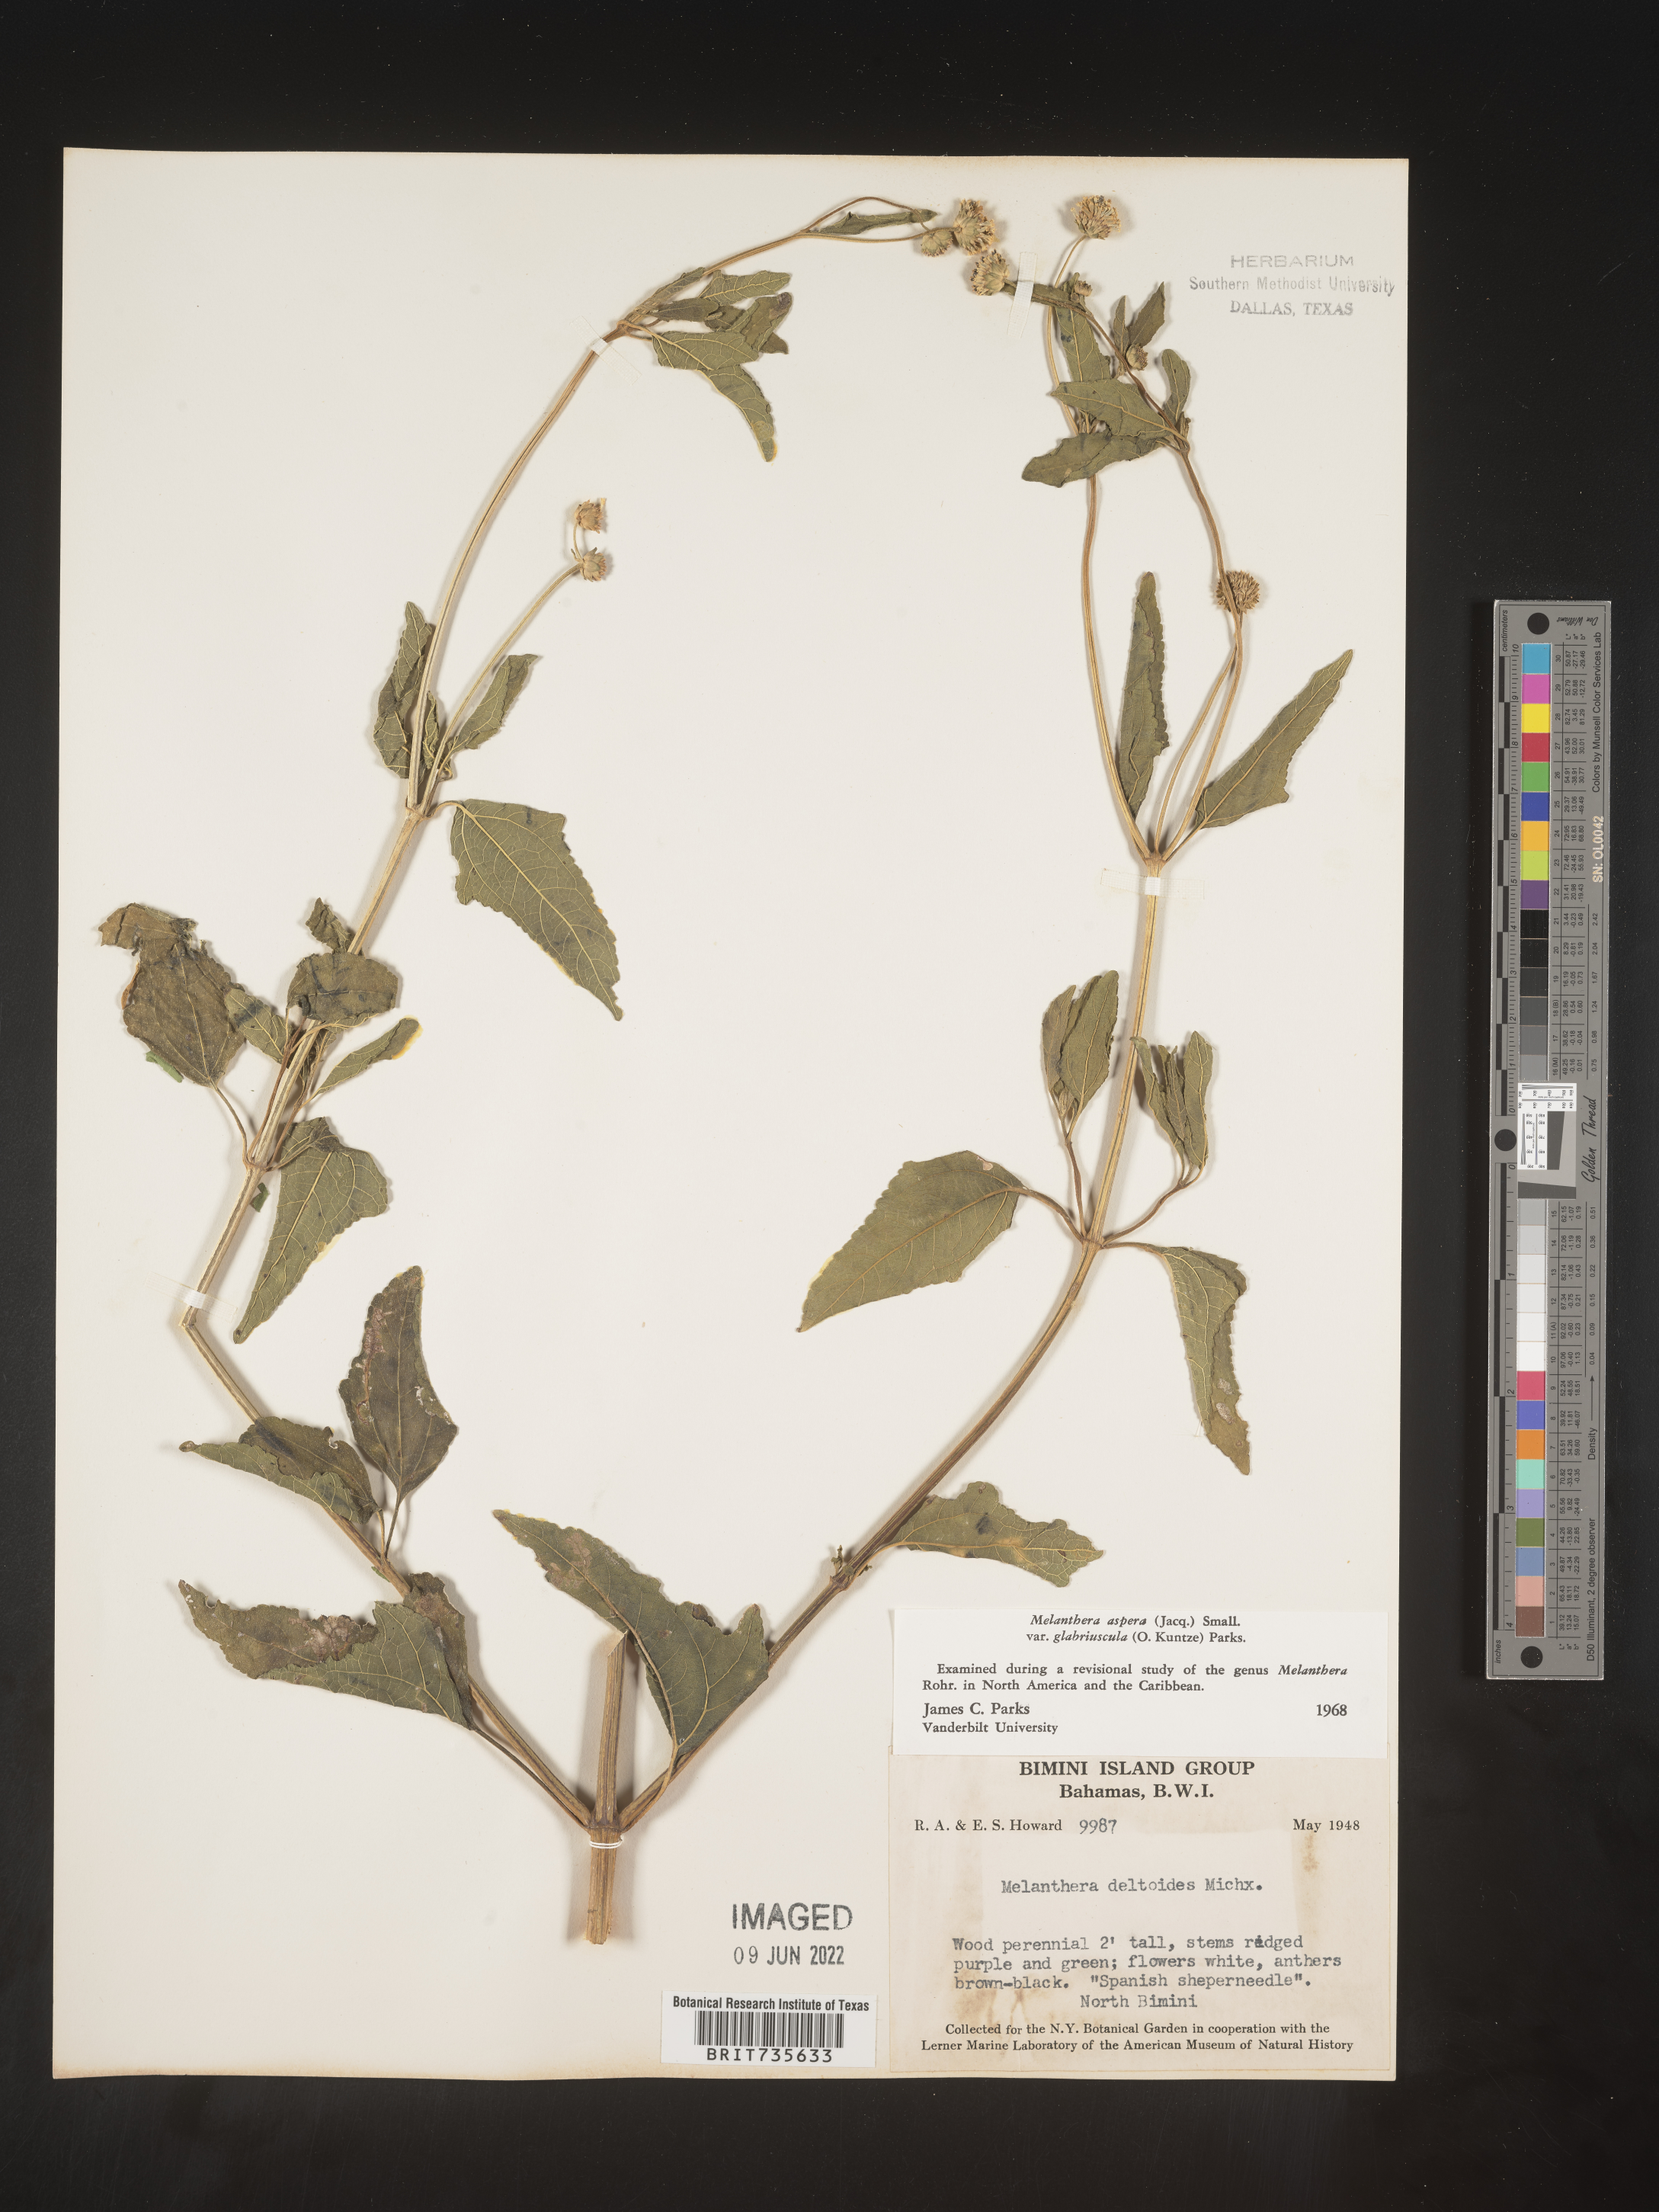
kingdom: Plantae
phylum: Tracheophyta
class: Magnoliopsida
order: Asterales
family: Asteraceae
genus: Melanthera
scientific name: Melanthera
